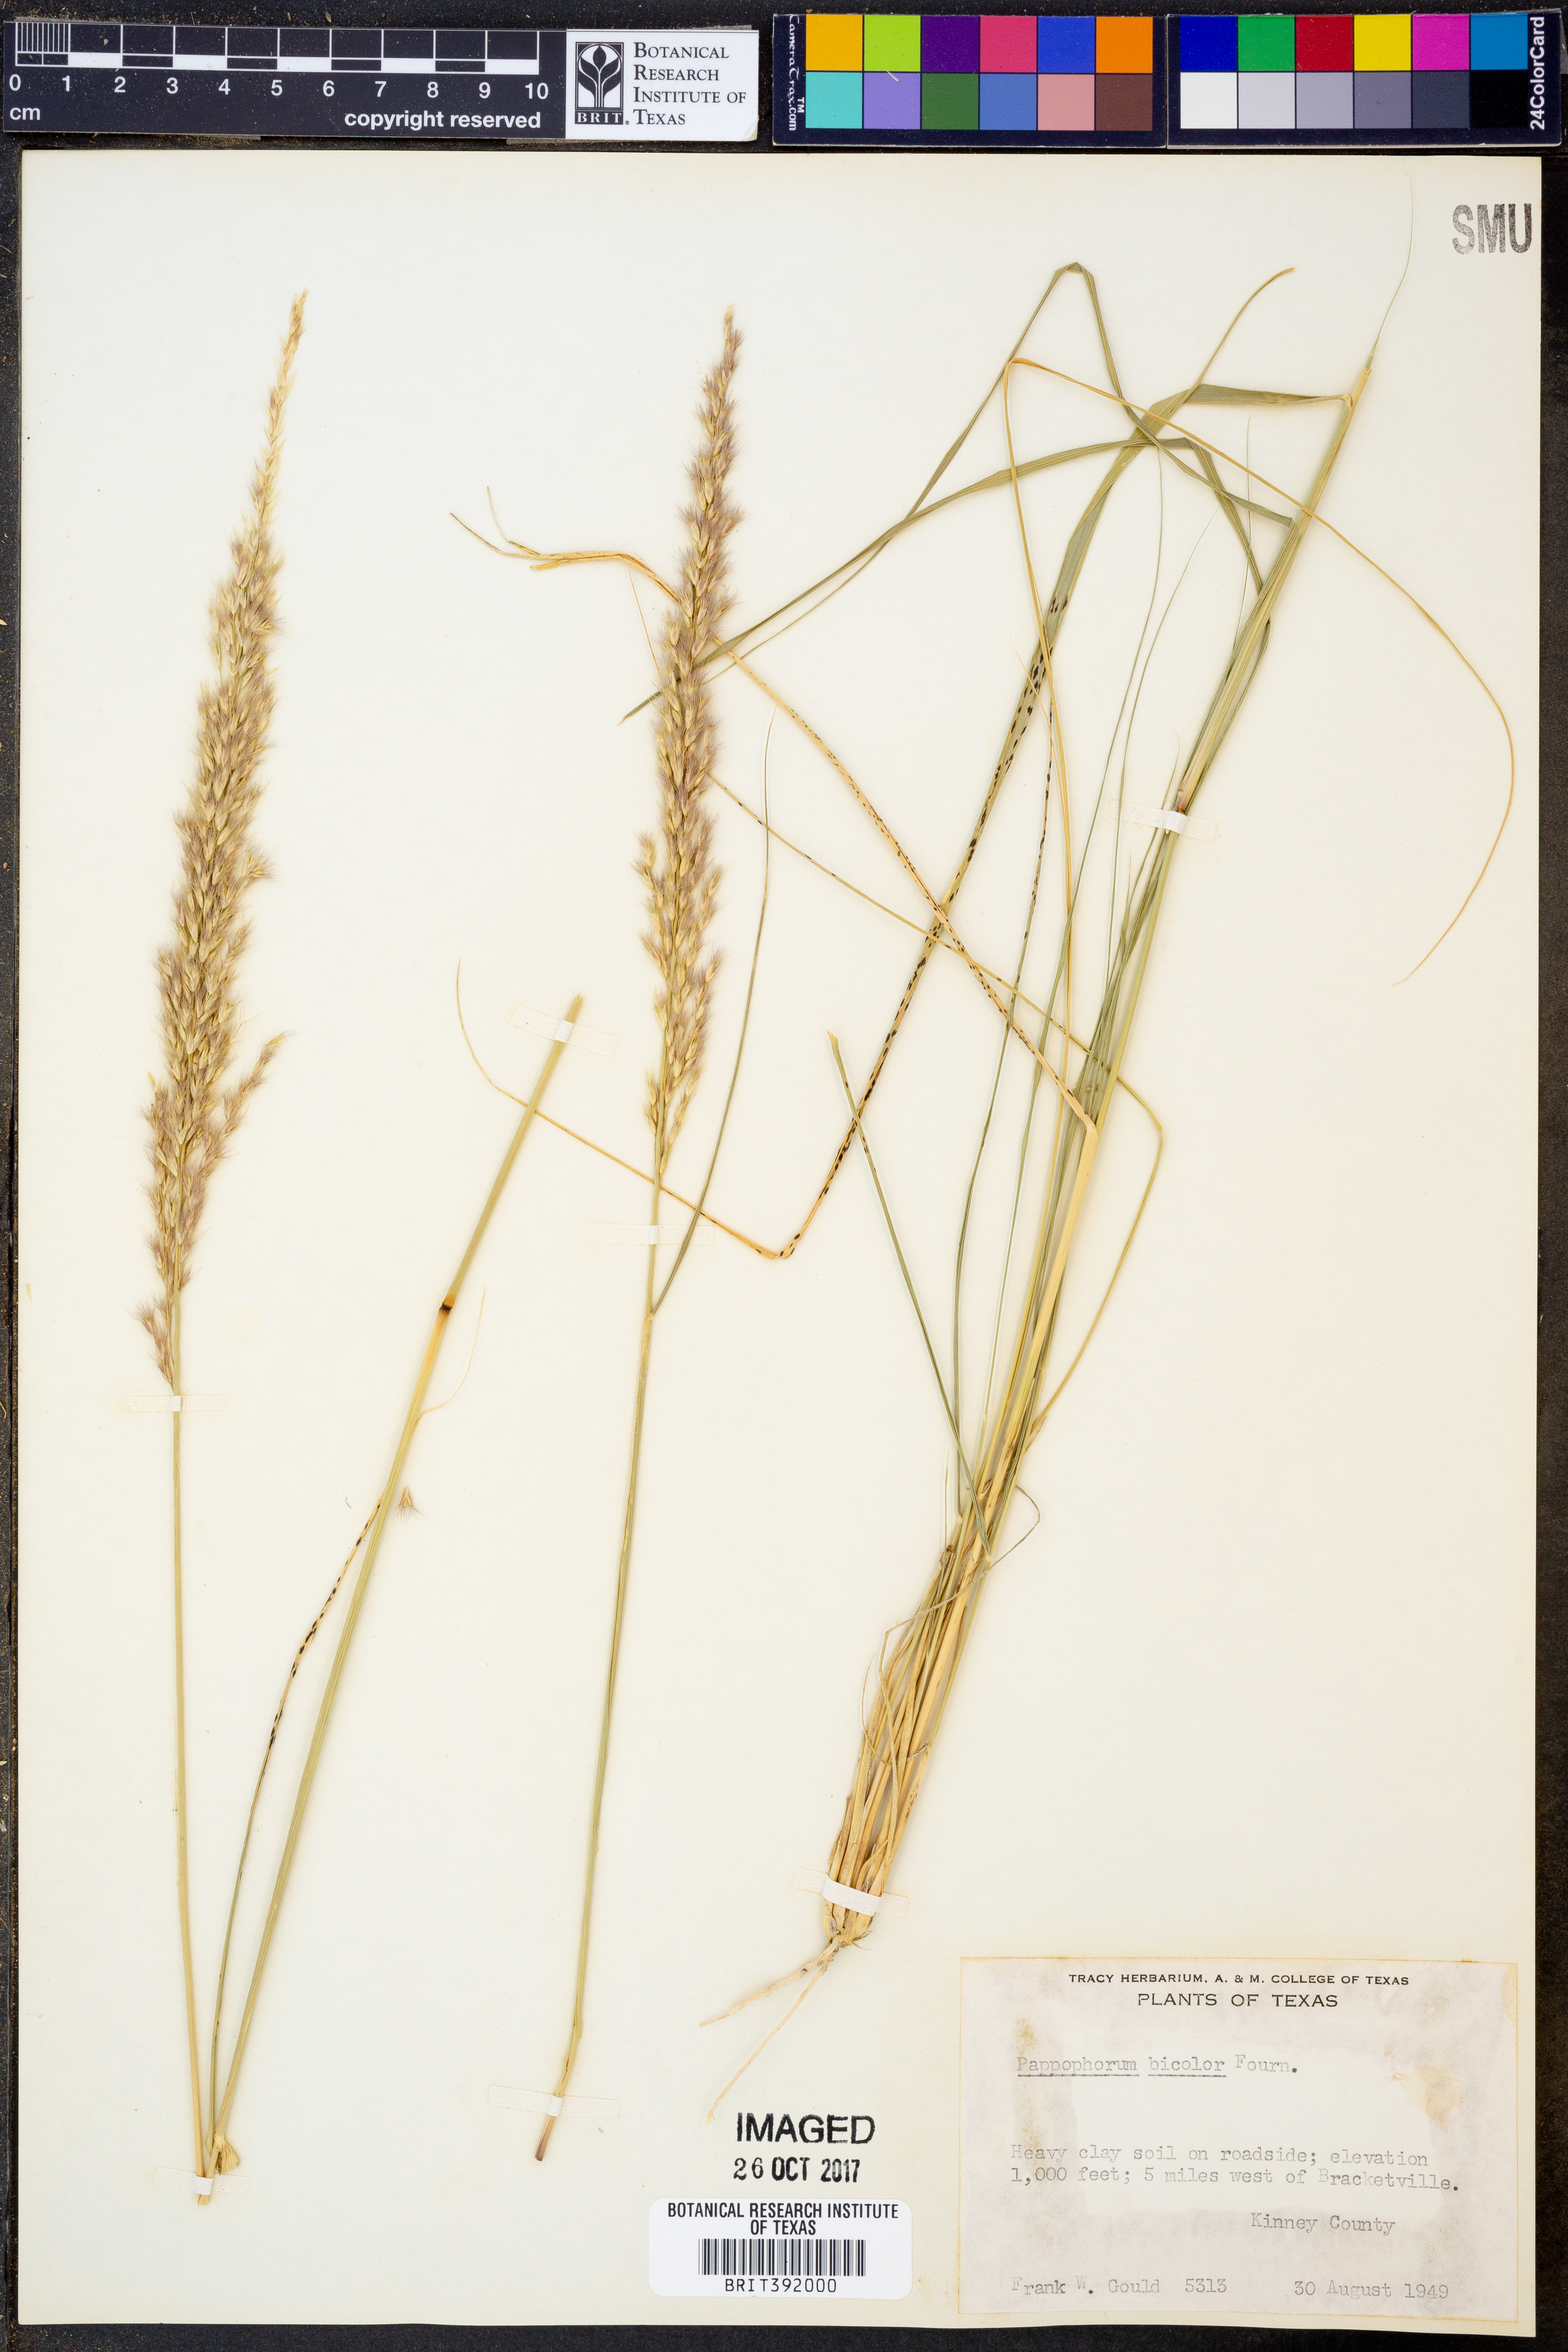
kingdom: Plantae
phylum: Tracheophyta
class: Liliopsida
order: Poales
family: Poaceae
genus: Pappophorum
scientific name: Pappophorum bicolor
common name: Pink pappus grass
